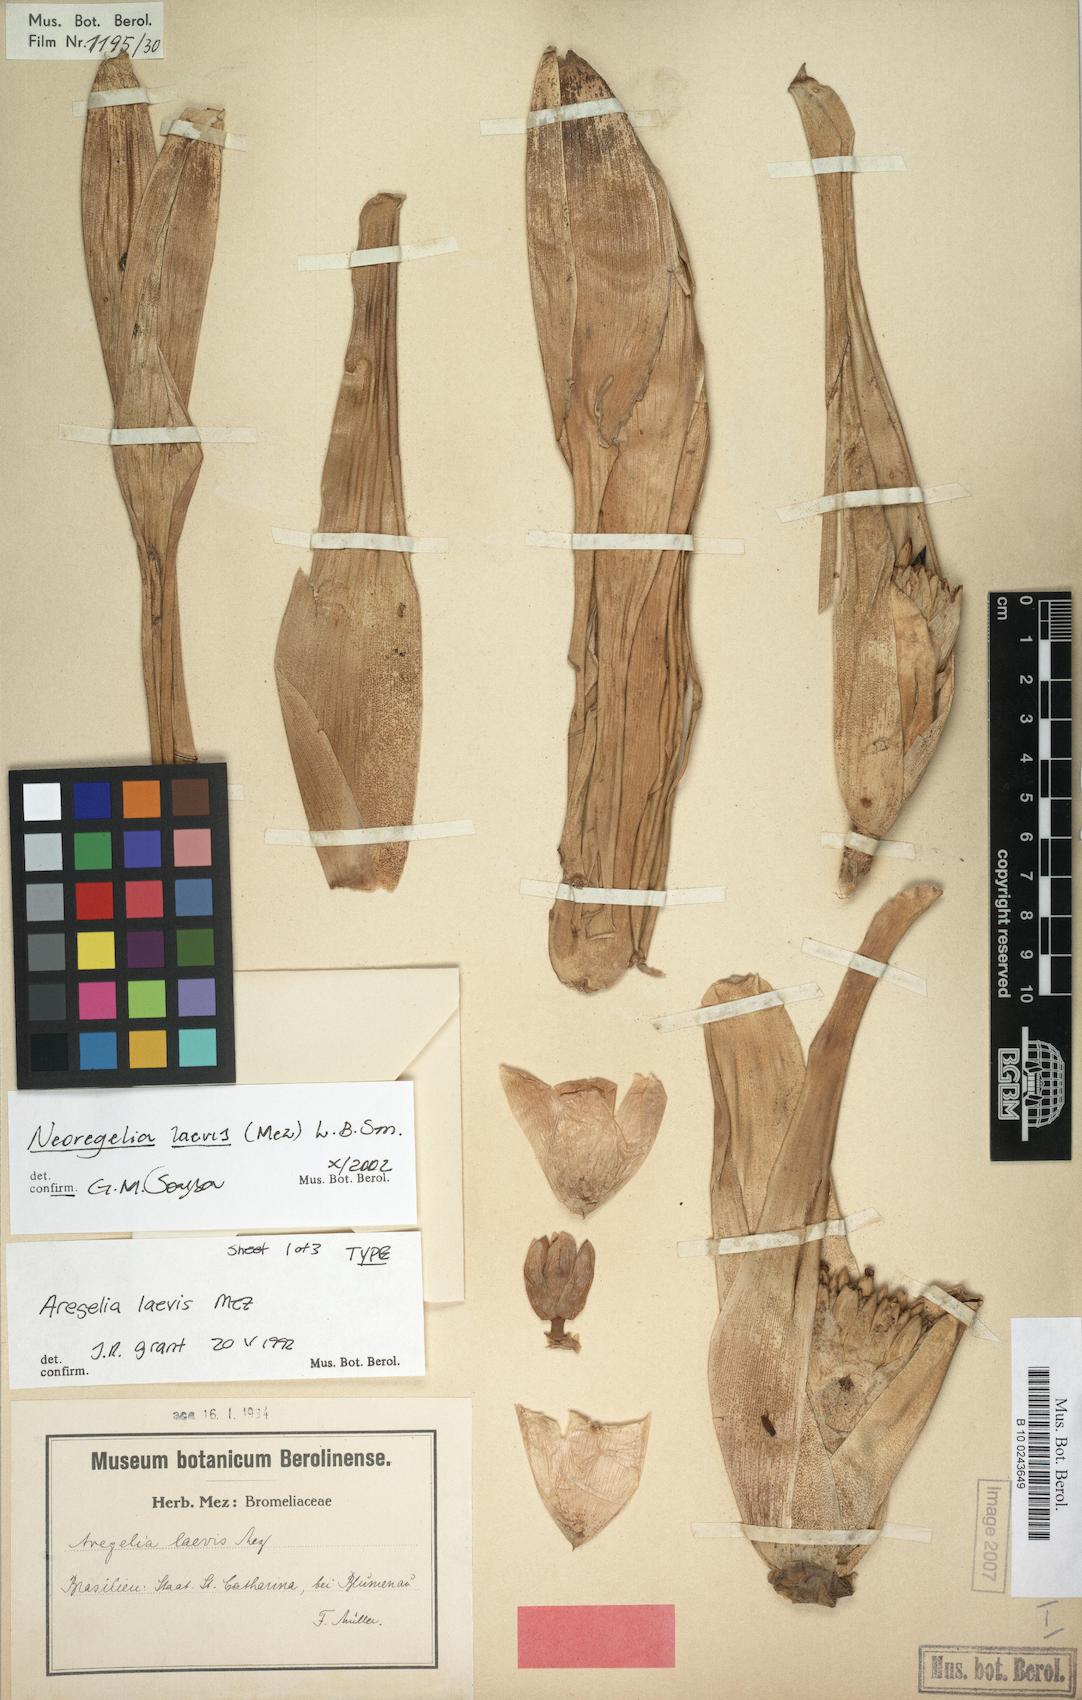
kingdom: Plantae
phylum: Tracheophyta
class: Liliopsida
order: Poales
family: Bromeliaceae
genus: Neoregelia
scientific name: Neoregelia laevis
